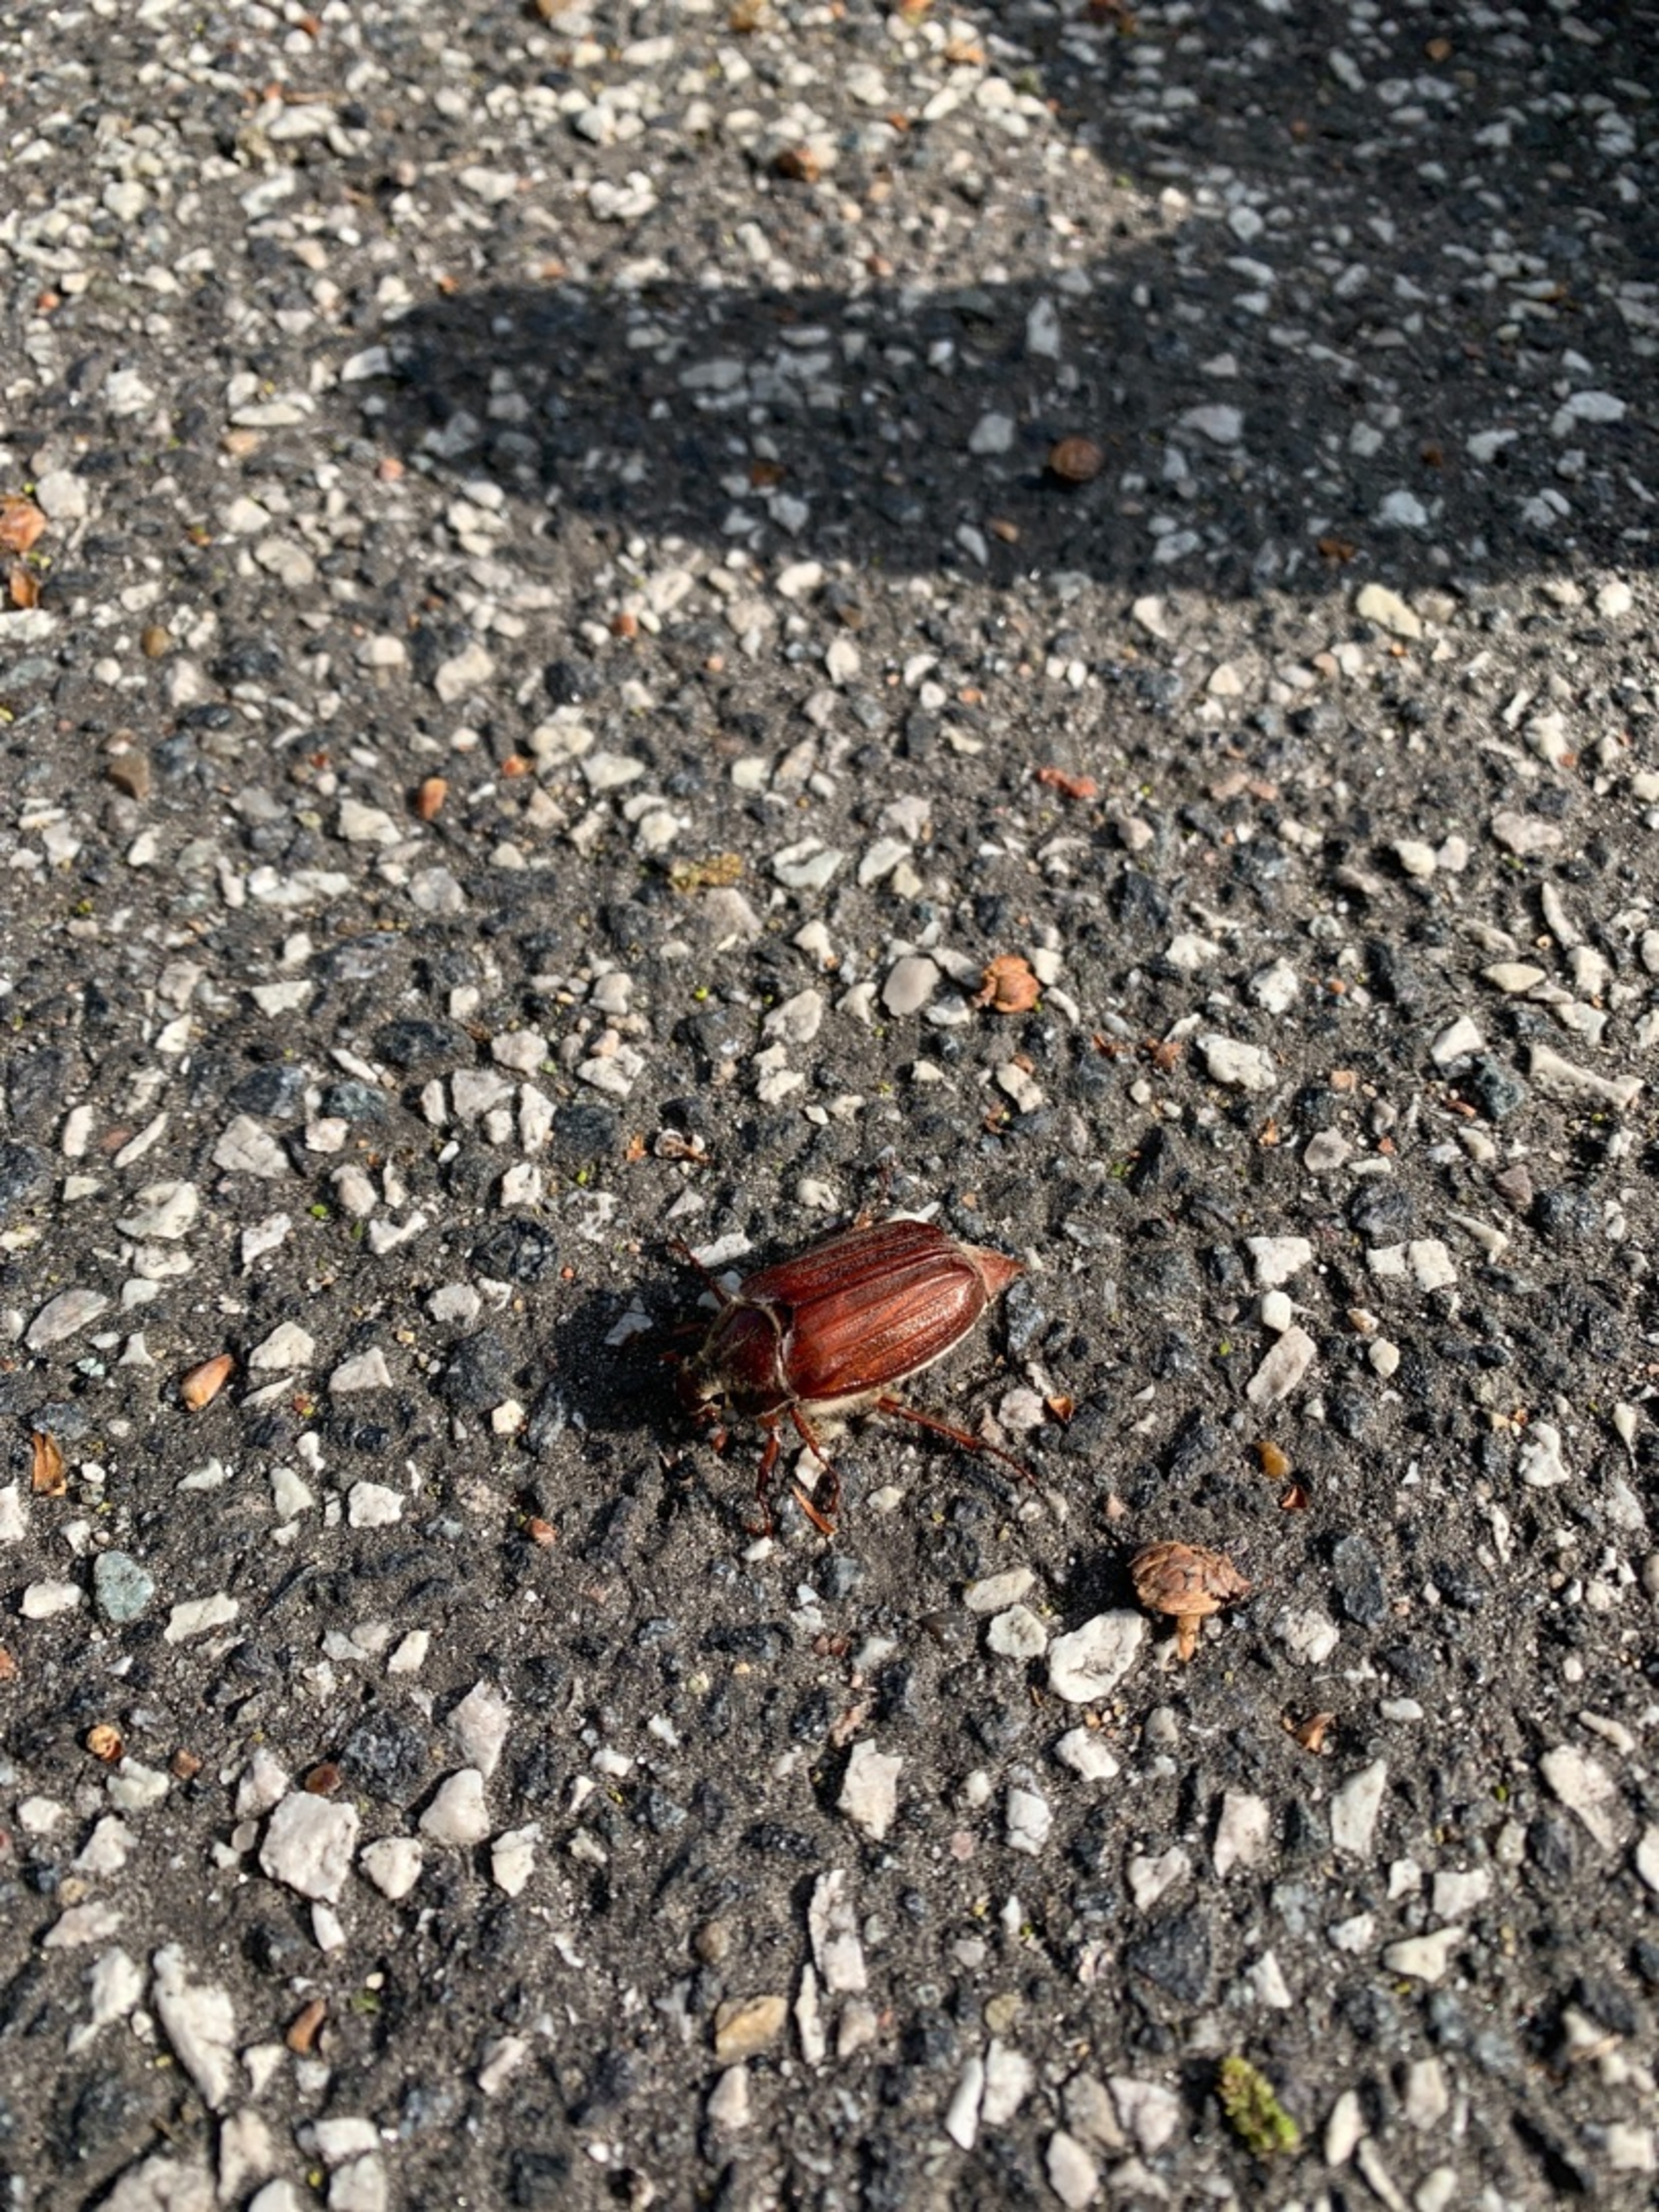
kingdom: Animalia
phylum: Arthropoda
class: Insecta
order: Coleoptera
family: Scarabaeidae
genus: Melolontha
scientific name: Melolontha melolontha
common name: Almindelig oldenborre
